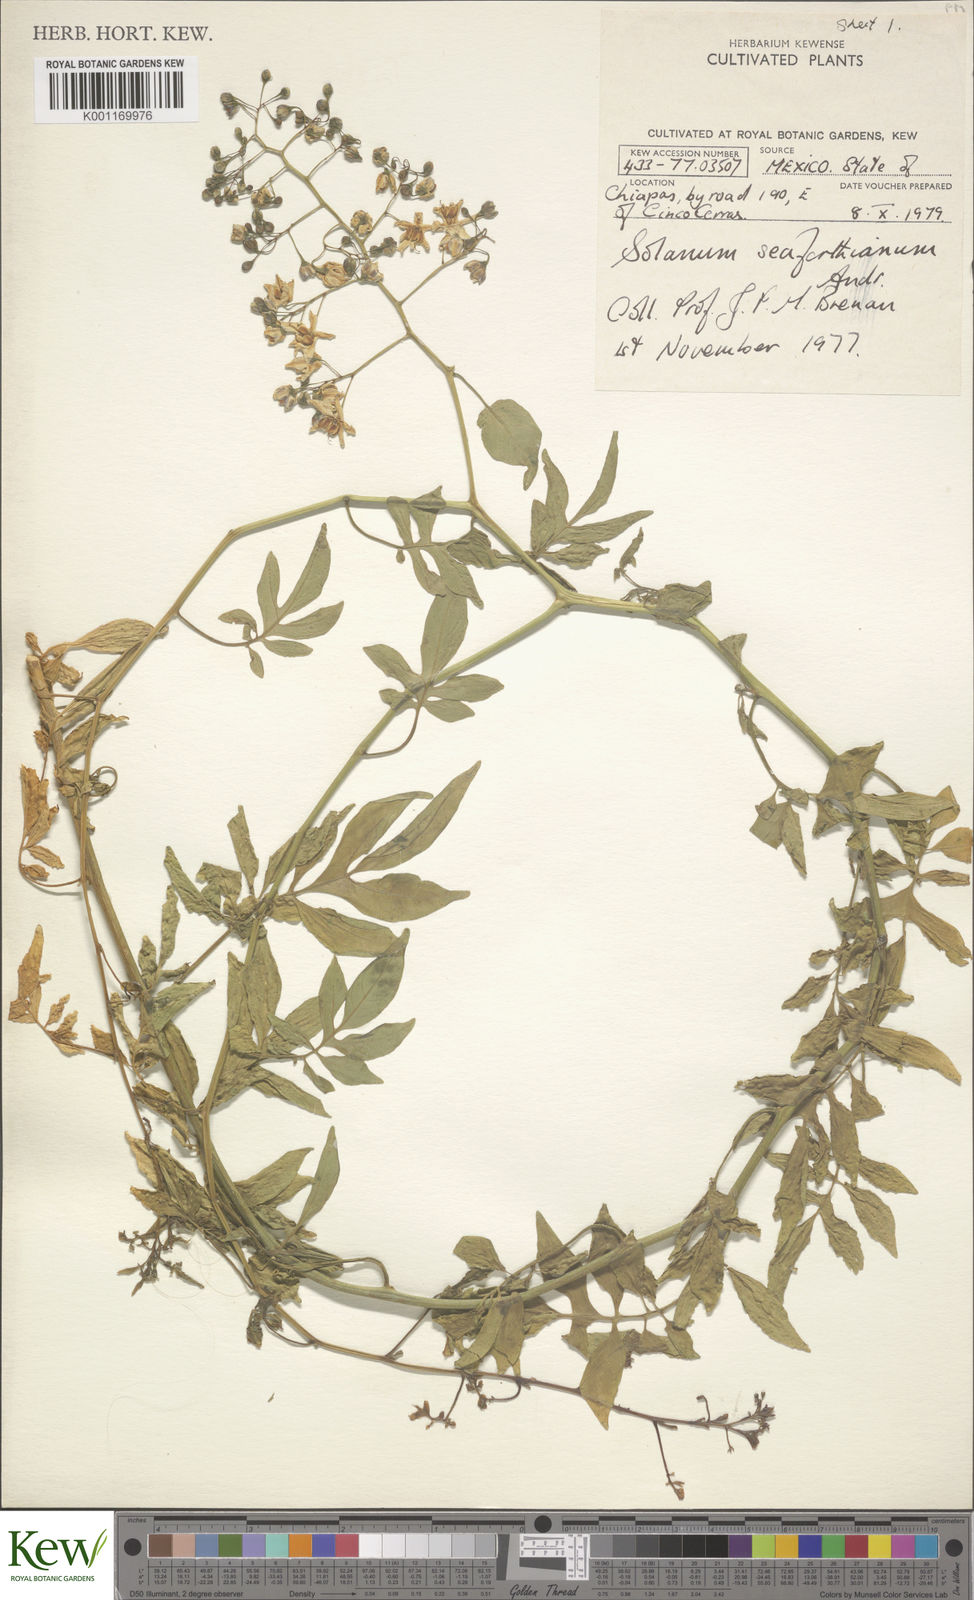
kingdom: Plantae
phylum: Tracheophyta
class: Magnoliopsida
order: Solanales
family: Solanaceae
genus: Solanum
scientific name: Solanum seaforthianum
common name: Brazilian nightshade
